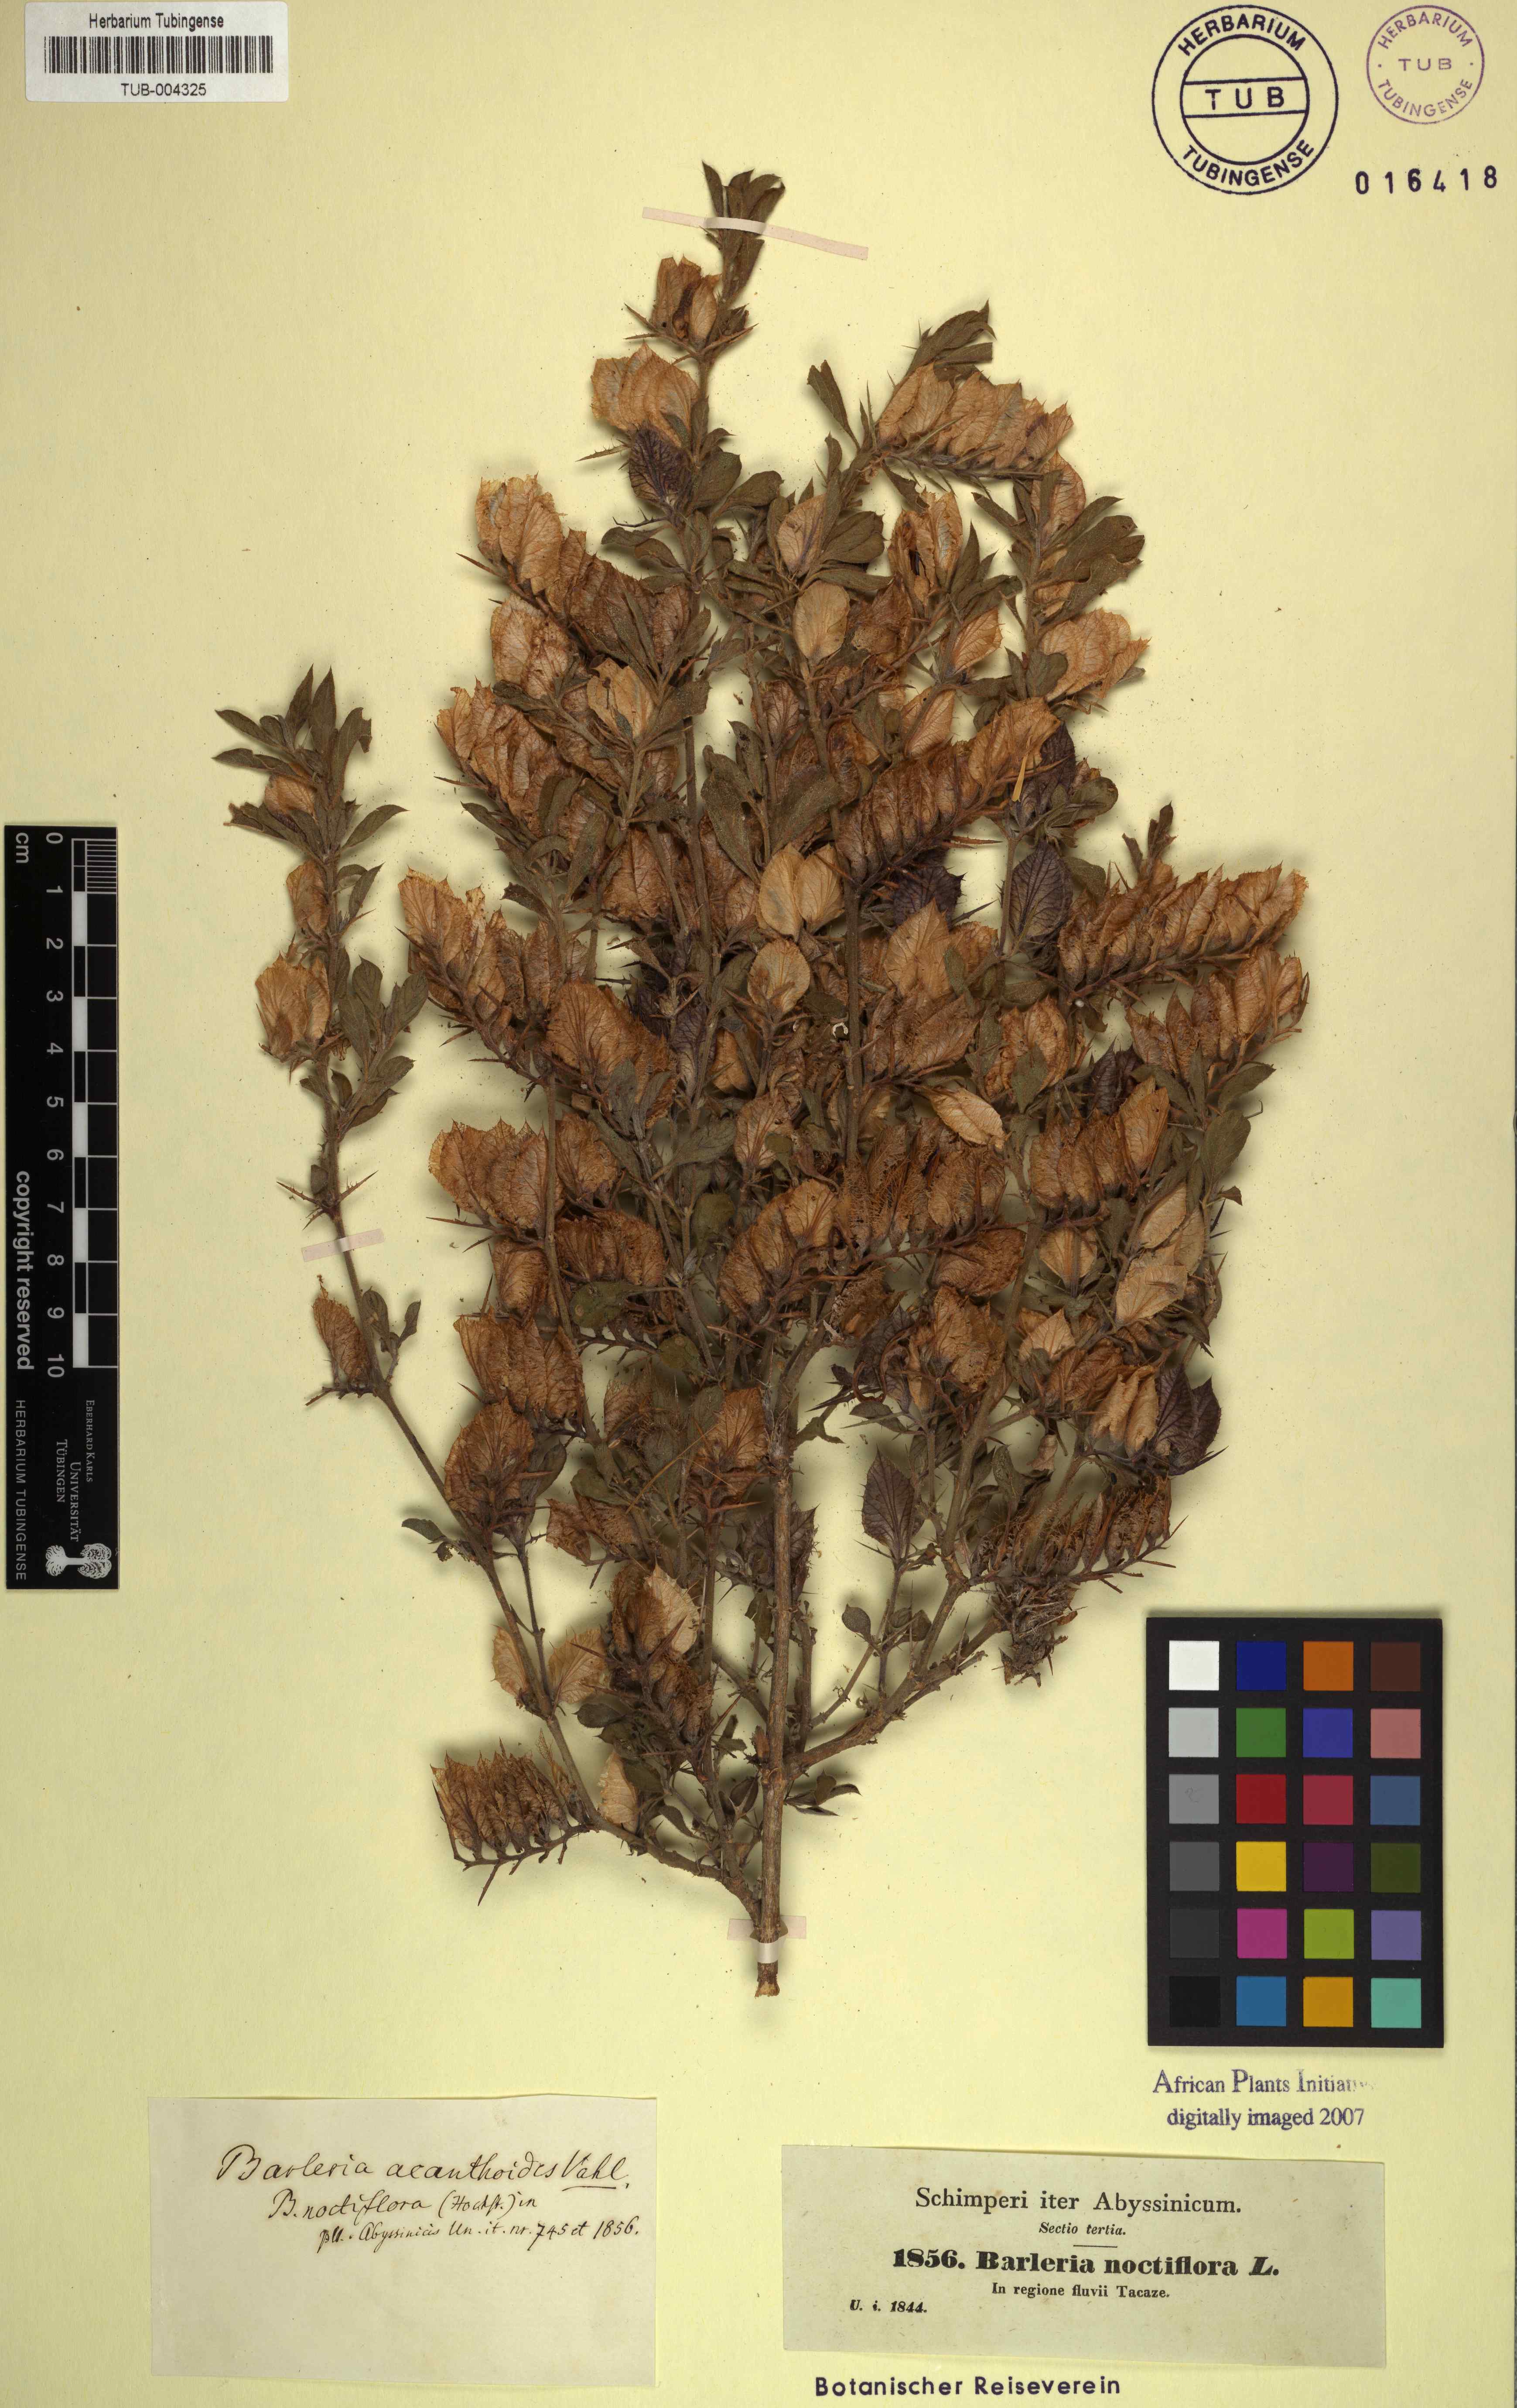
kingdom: Plantae
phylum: Tracheophyta
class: Magnoliopsida
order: Lamiales
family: Acanthaceae
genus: Barleria
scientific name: Barleria noctiflora
